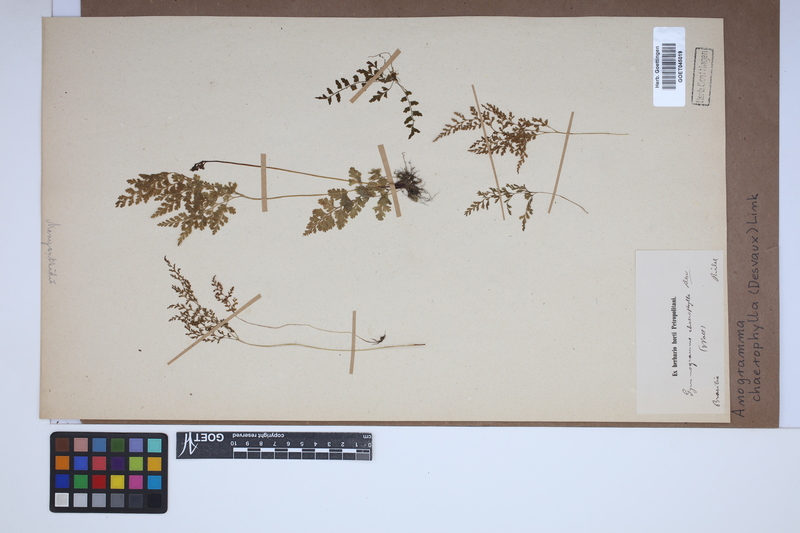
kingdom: Plantae
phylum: Tracheophyta
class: Polypodiopsida
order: Polypodiales
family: Pteridaceae
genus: Gastoniella
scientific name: Gastoniella chaerophylla
